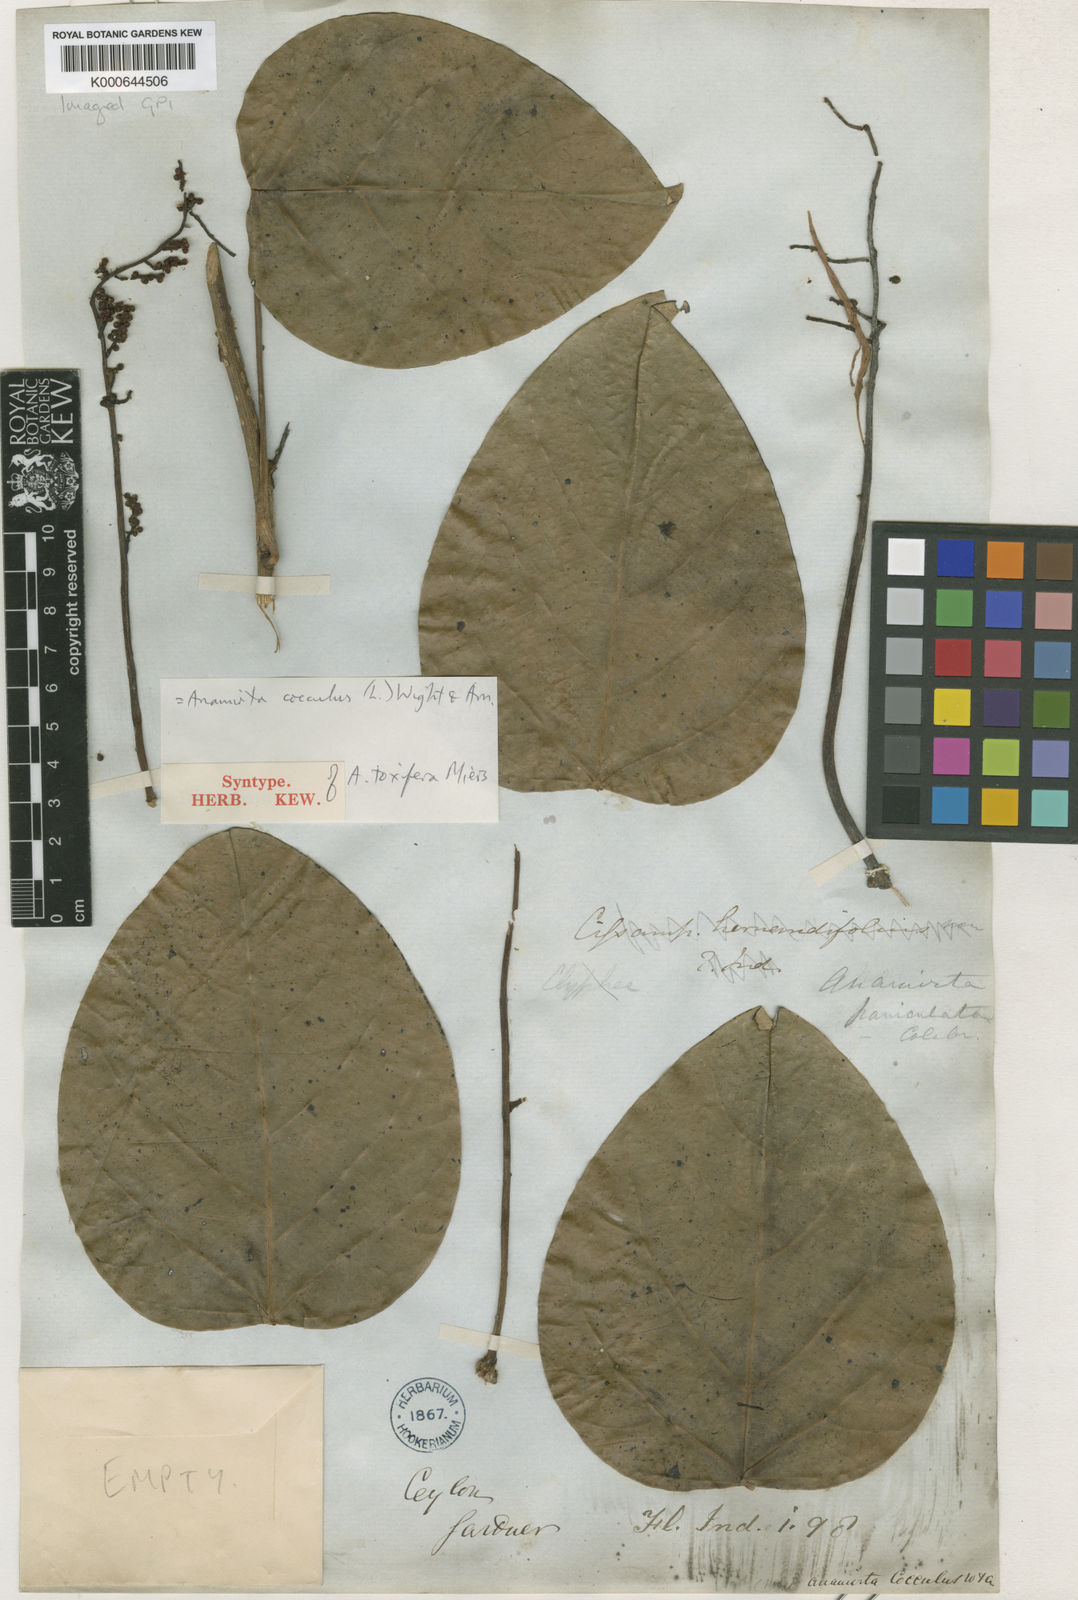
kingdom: Plantae
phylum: Tracheophyta
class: Magnoliopsida
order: Ranunculales
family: Menispermaceae
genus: Anamirta
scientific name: Anamirta cocculus
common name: Levantnut
